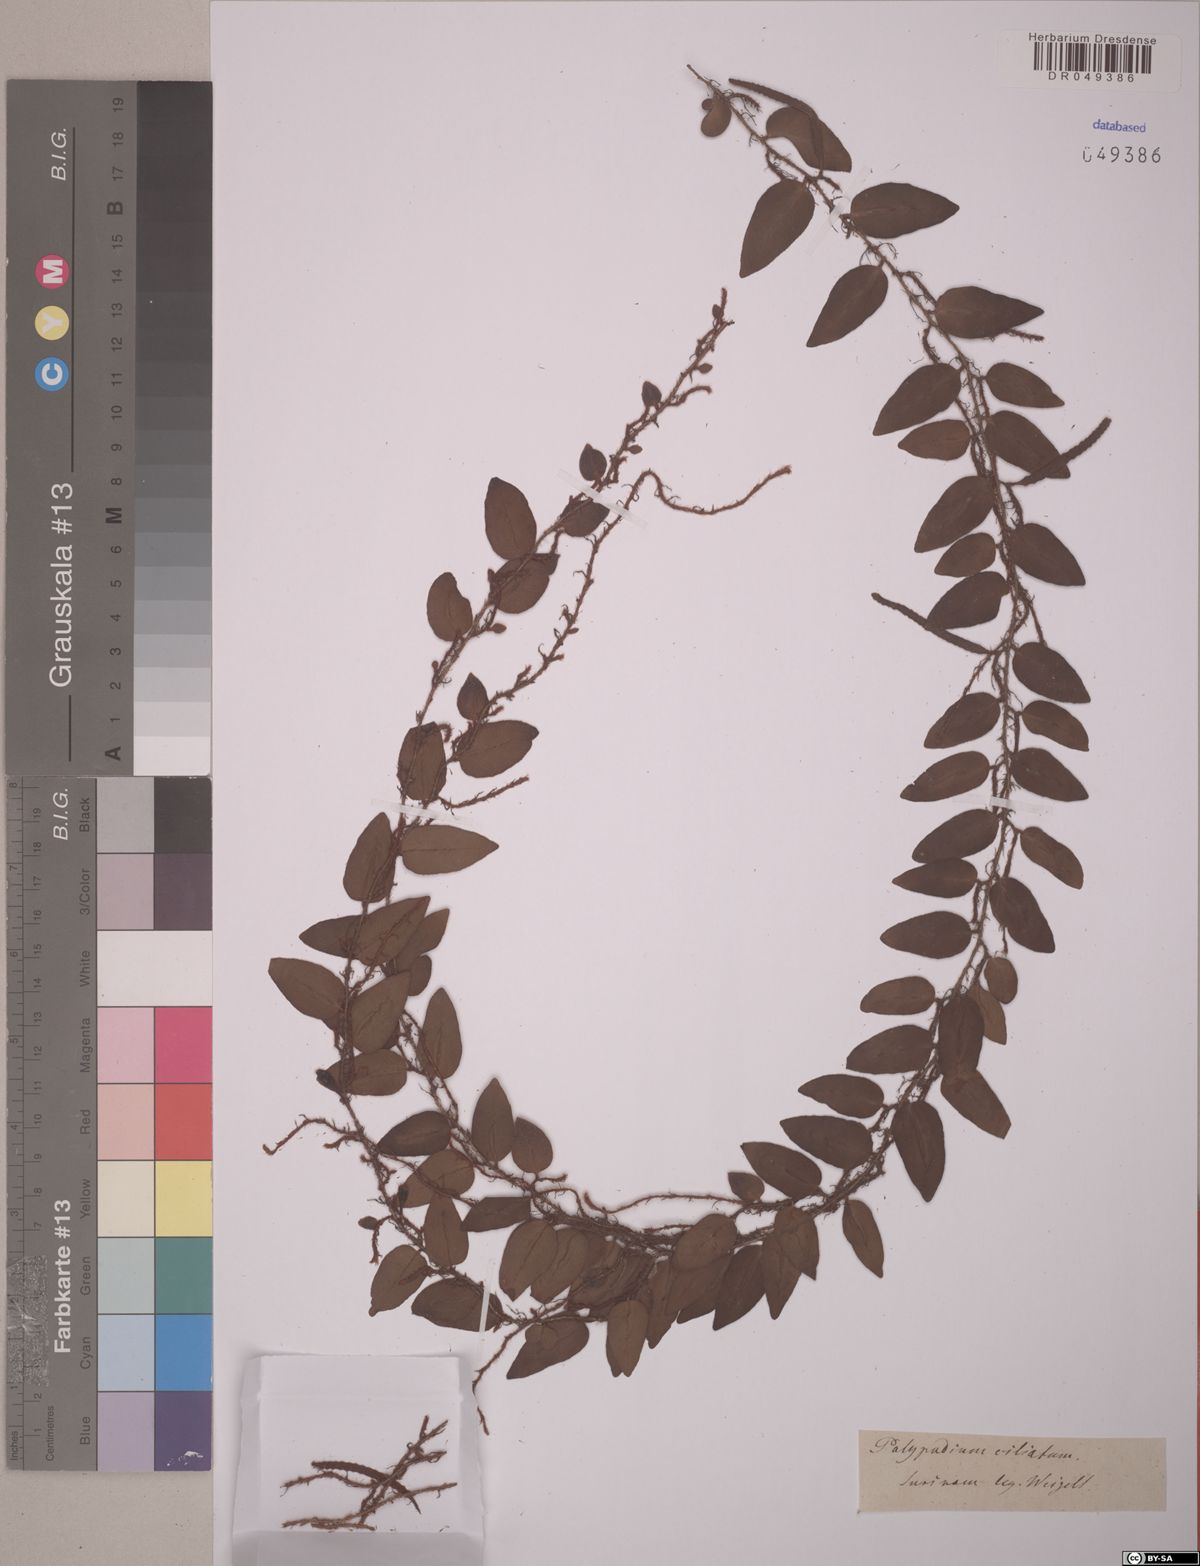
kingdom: Plantae
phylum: Tracheophyta
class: Polypodiopsida
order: Polypodiales
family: Polypodiaceae
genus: Microgramma
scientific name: Microgramma reptans
